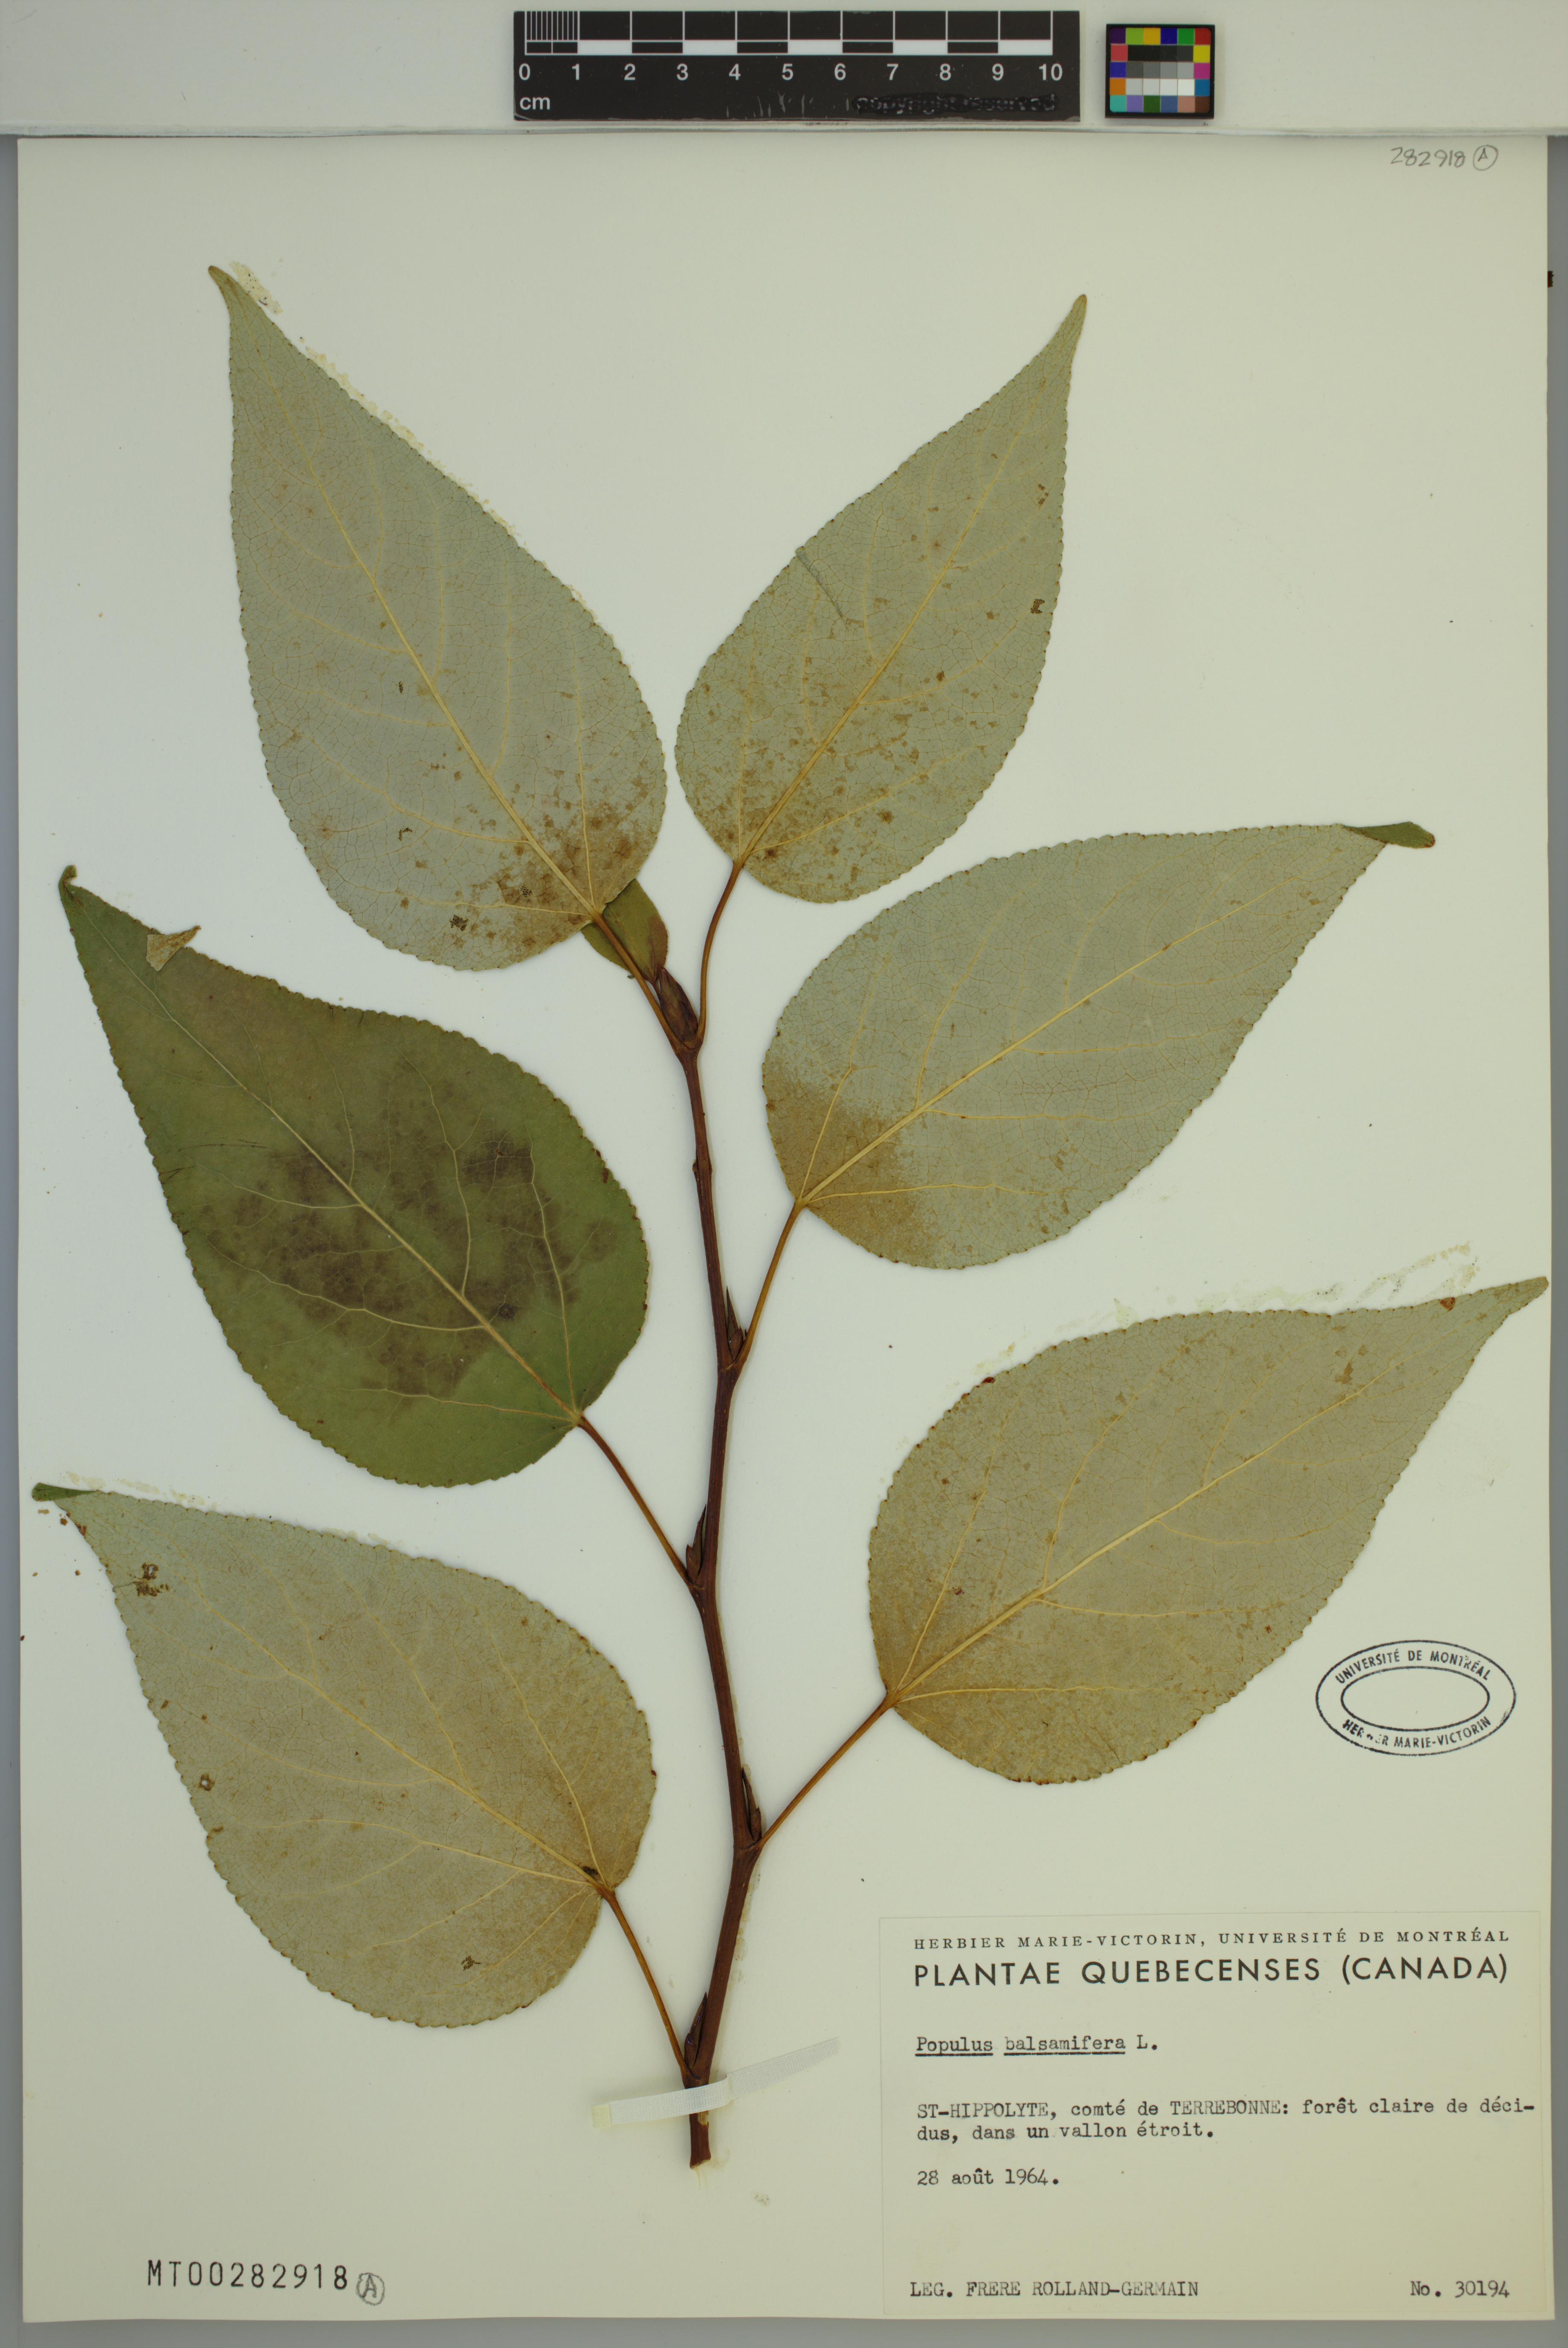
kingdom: Plantae
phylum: Tracheophyta
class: Magnoliopsida
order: Malpighiales
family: Salicaceae
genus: Populus
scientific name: Populus balsamifera
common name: Balsam poplar
